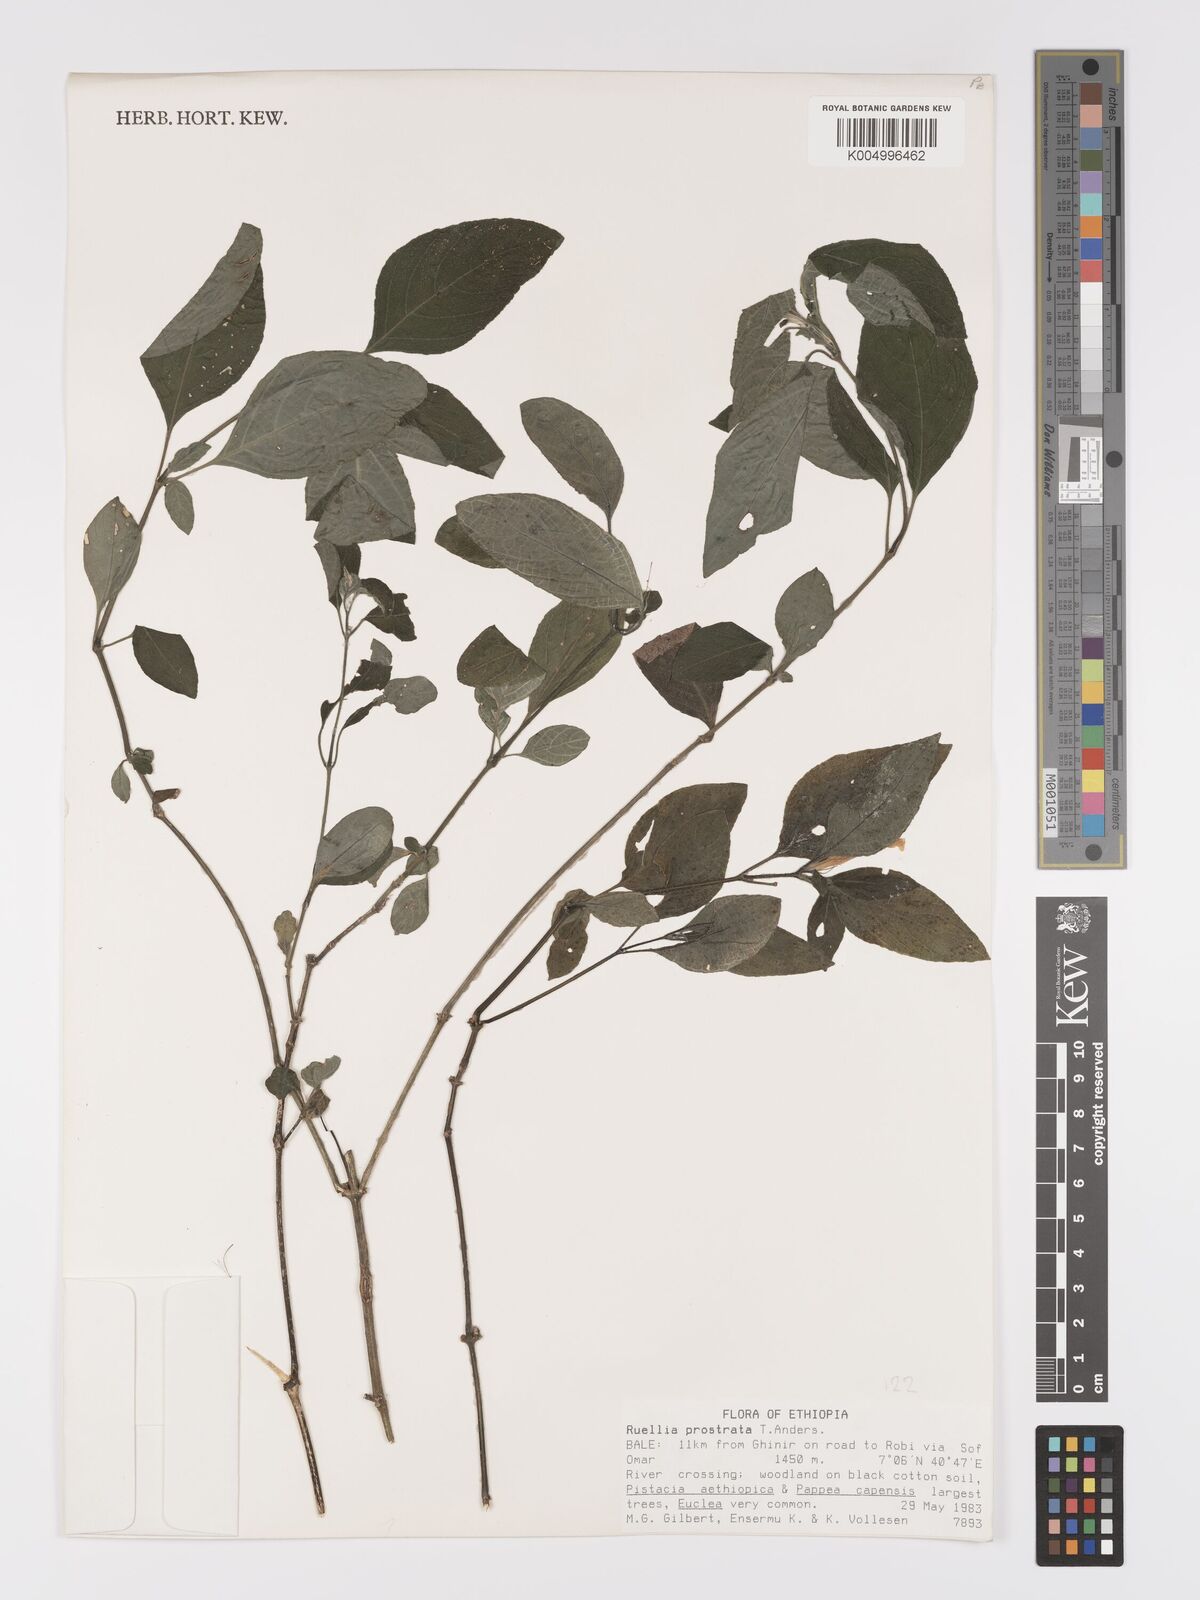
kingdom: Plantae
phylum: Tracheophyta
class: Magnoliopsida
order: Lamiales
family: Acanthaceae
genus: Ruellia
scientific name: Ruellia
